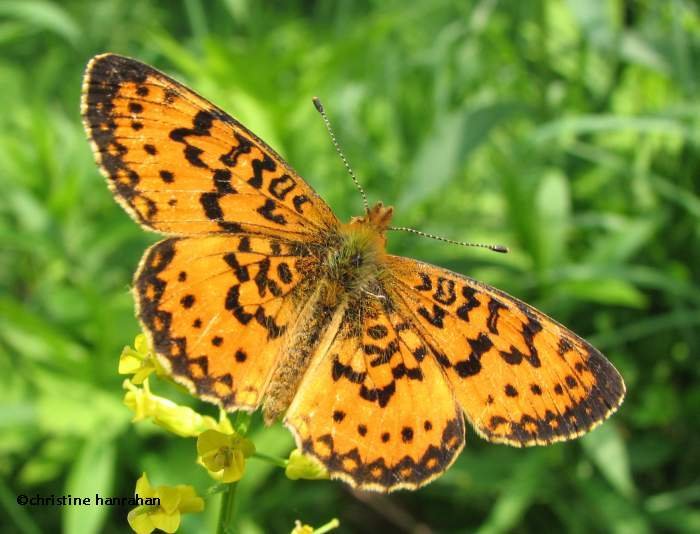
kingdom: Animalia
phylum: Arthropoda
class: Insecta
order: Lepidoptera
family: Nymphalidae
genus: Boloria
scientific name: Boloria selene
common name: Silver-bordered Fritillary
